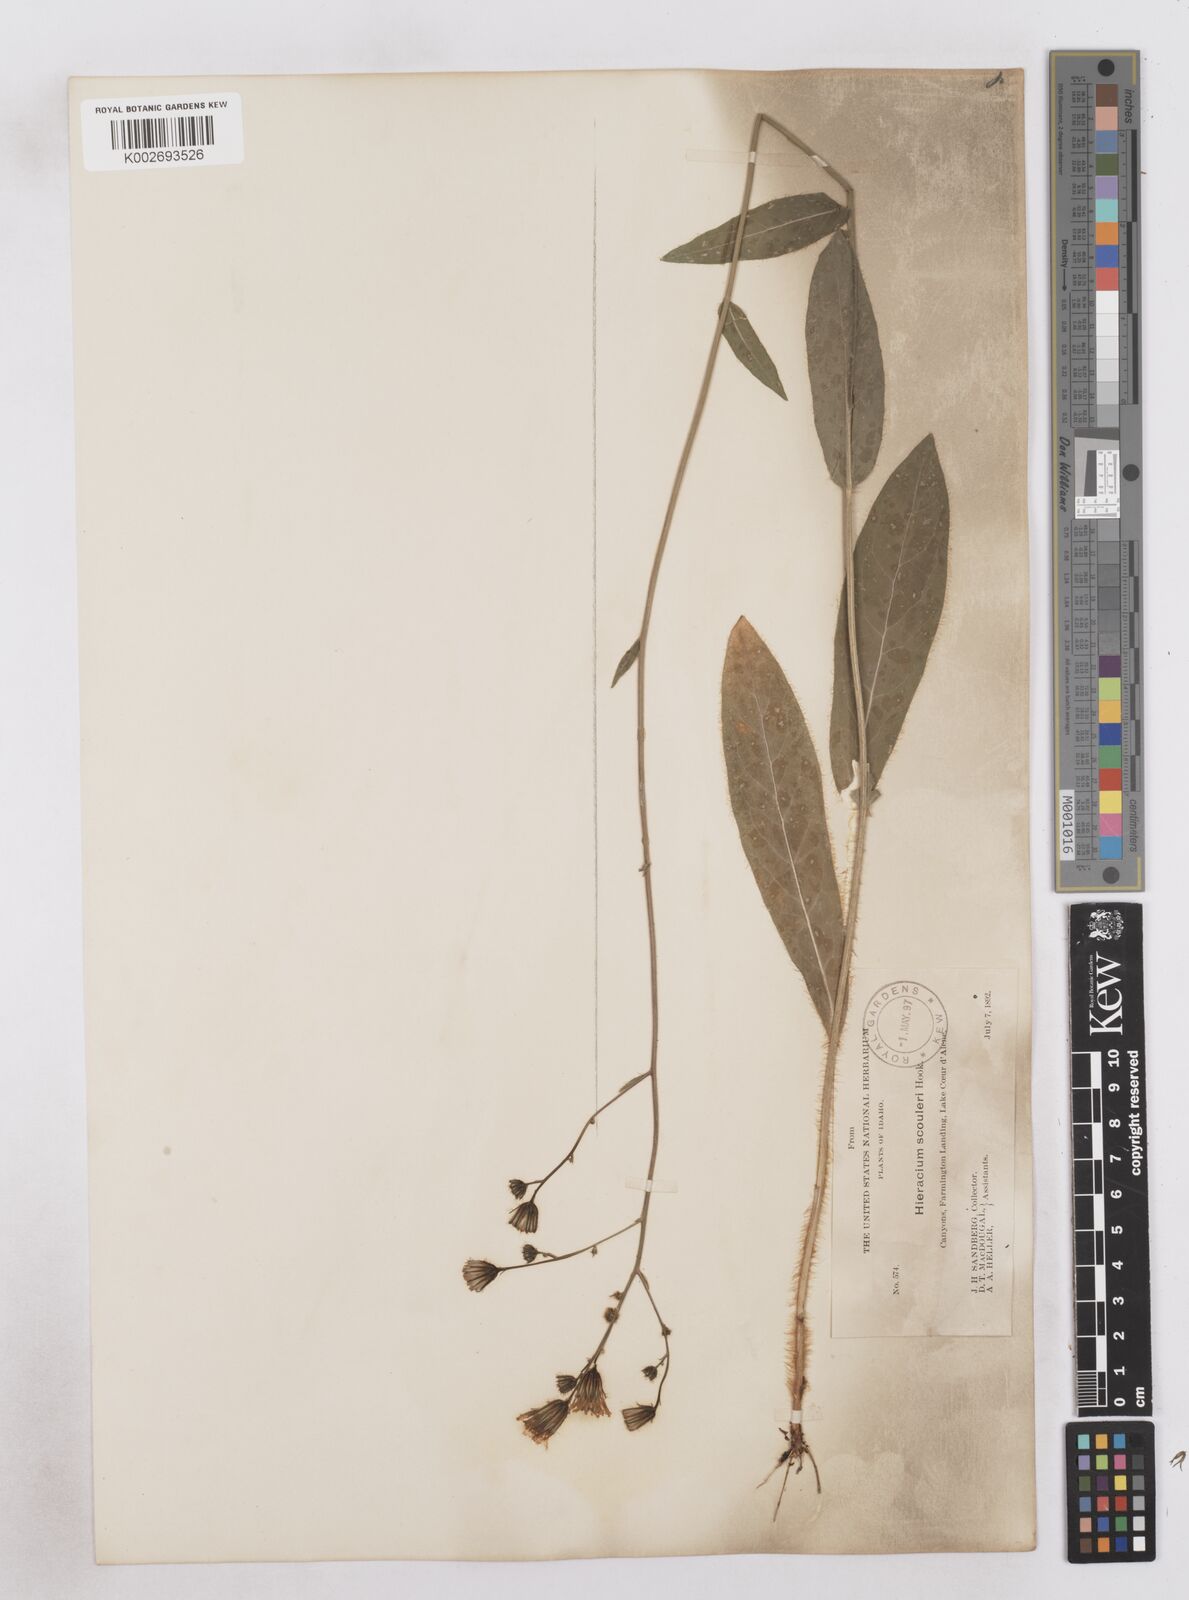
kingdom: Plantae
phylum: Tracheophyta
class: Magnoliopsida
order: Asterales
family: Asteraceae
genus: Hieracium
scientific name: Hieracium scouleri
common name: Hound's-tongue hawkweed
